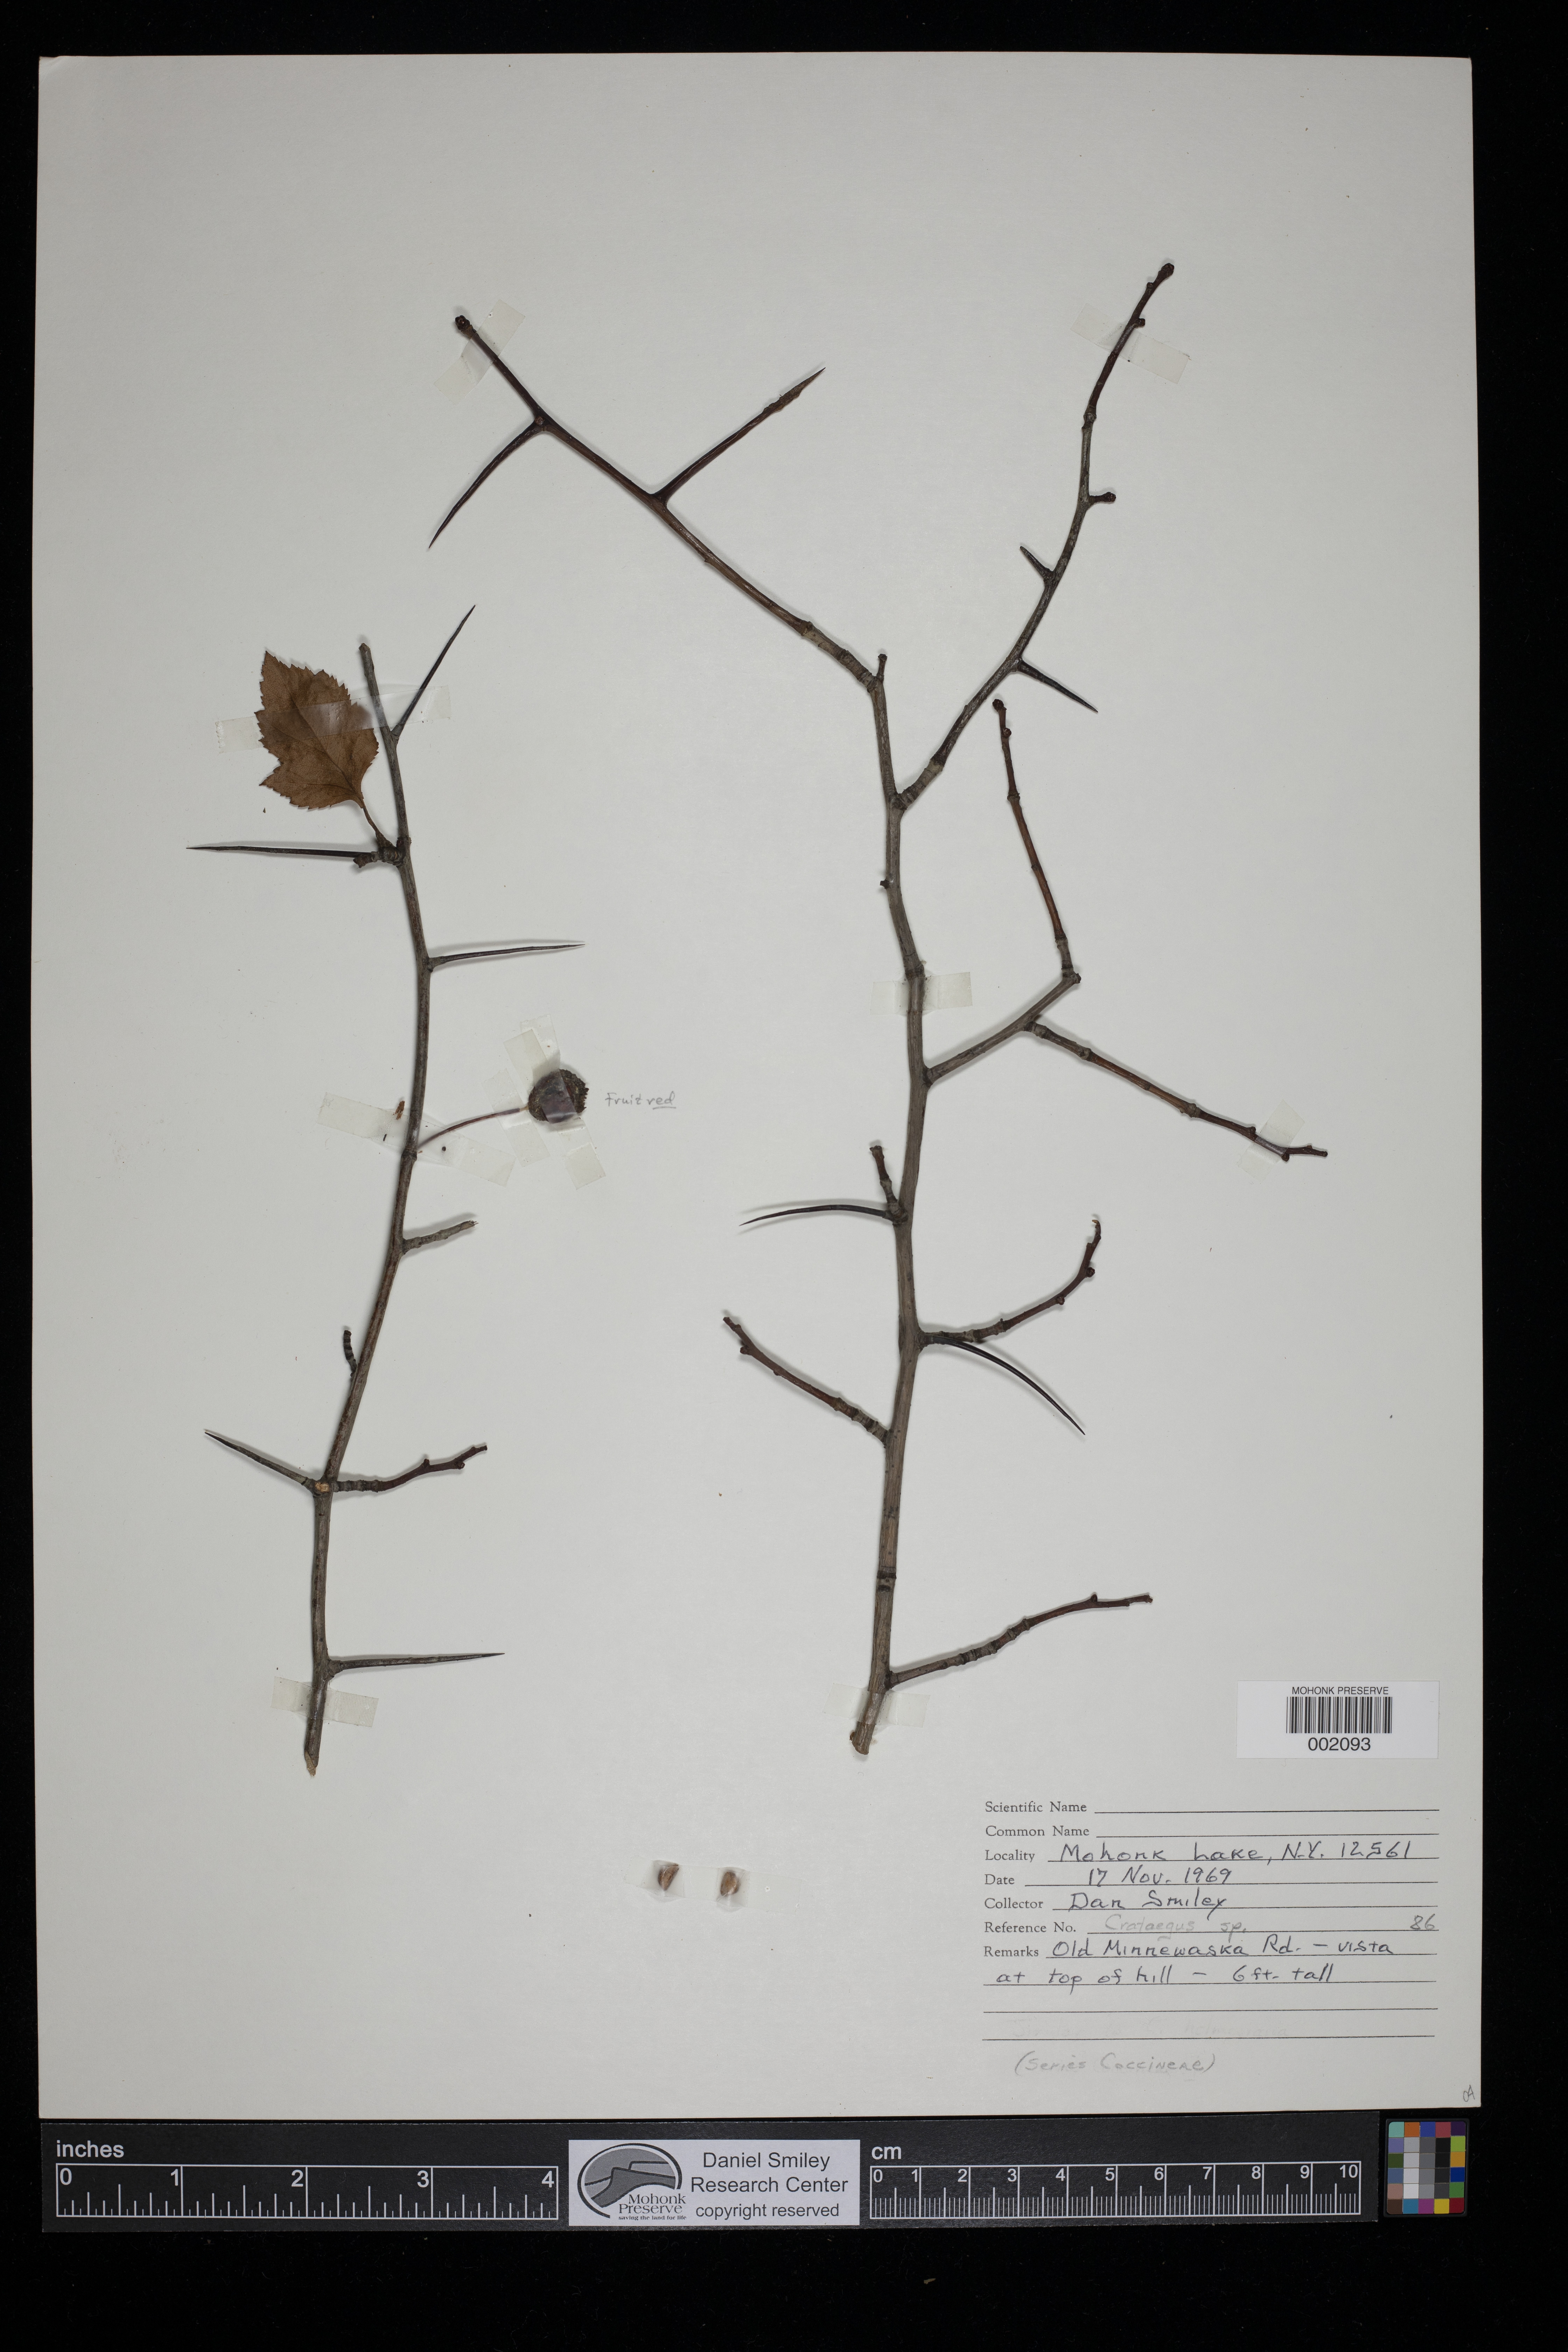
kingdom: Plantae
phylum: Tracheophyta
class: Magnoliopsida
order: Rosales
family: Rosaceae
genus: Crataegus
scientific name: Crataegus
